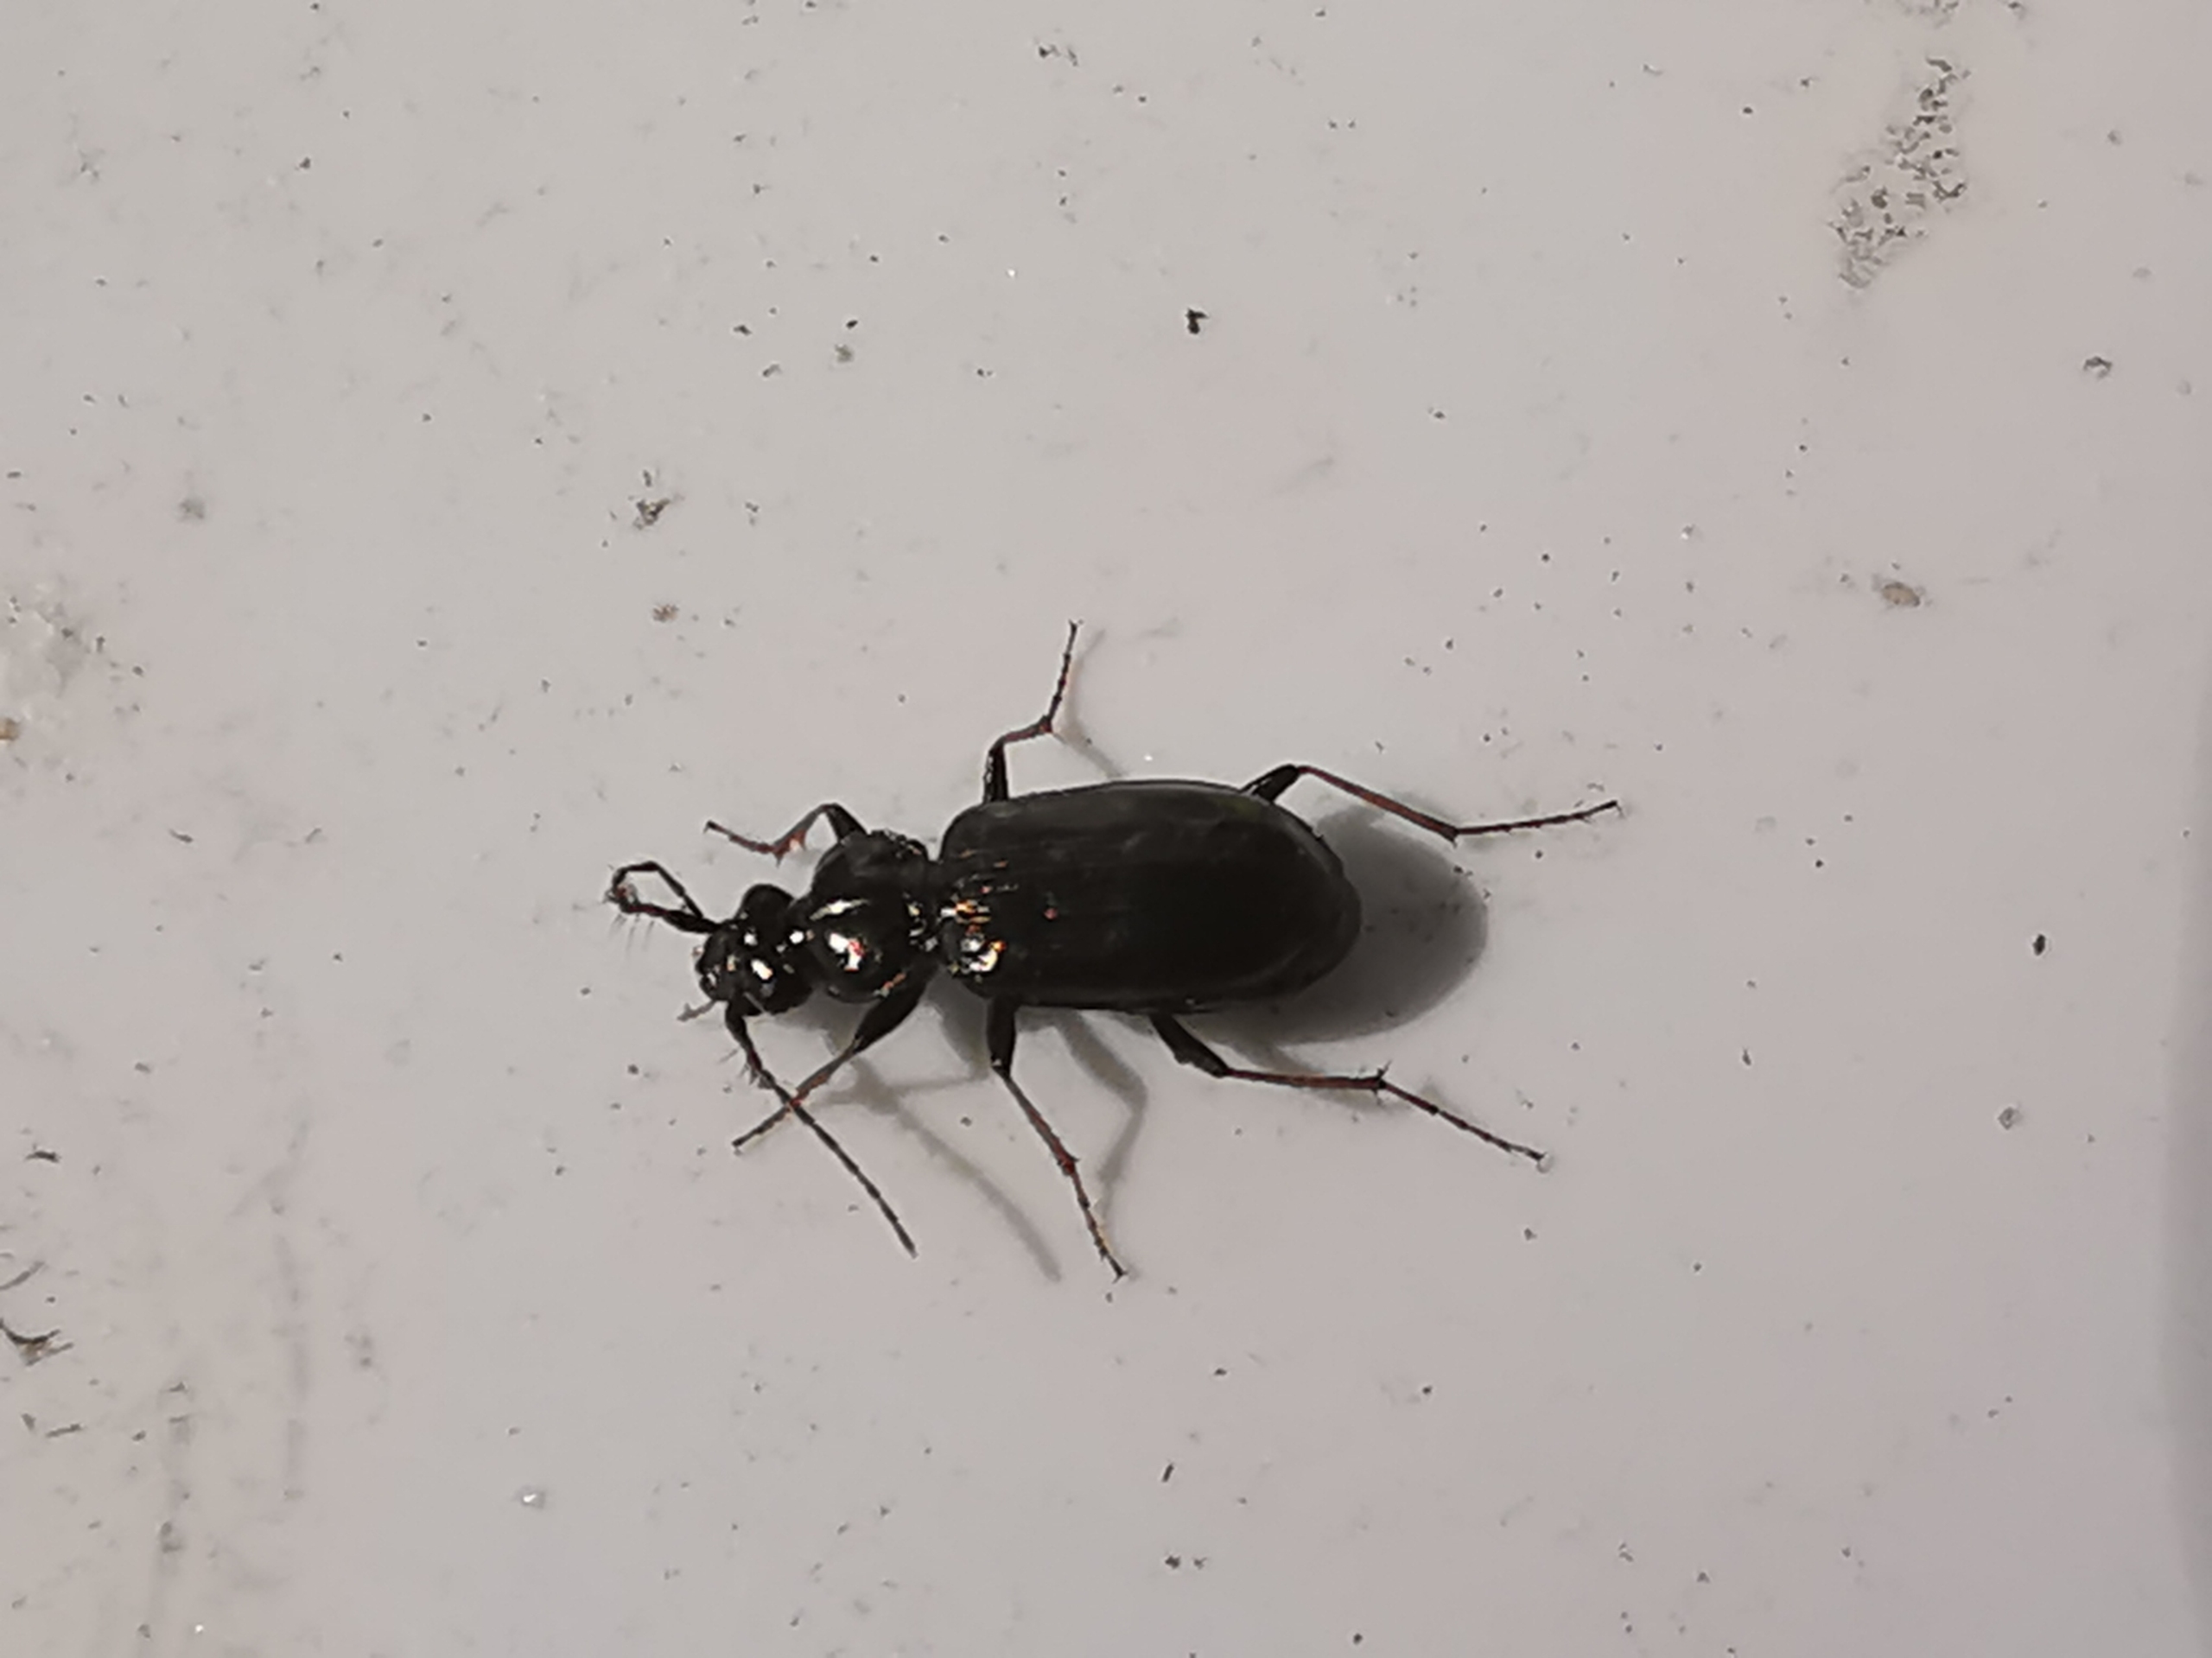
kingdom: Animalia
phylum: Arthropoda
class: Insecta
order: Coleoptera
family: Carabidae
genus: Loricera
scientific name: Loricera pilicornis
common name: Børsteløber
